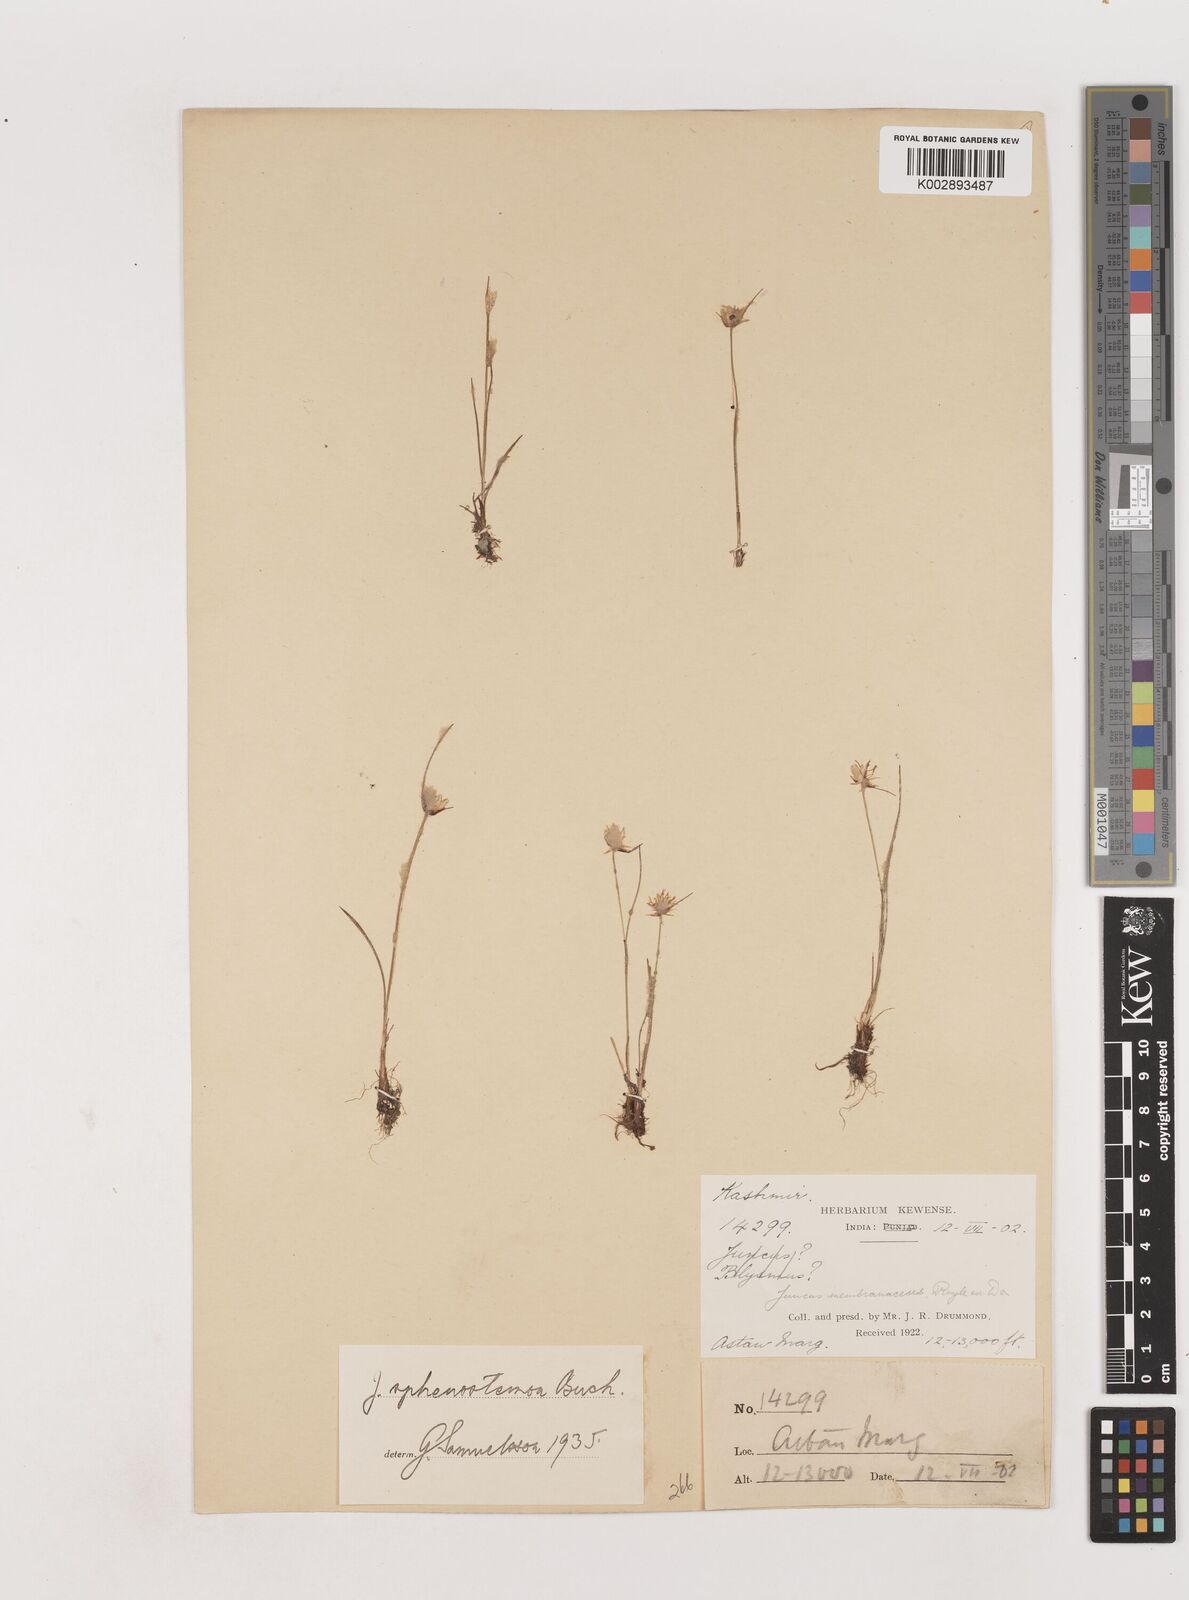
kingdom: Plantae
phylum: Tracheophyta
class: Liliopsida
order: Poales
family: Juncaceae
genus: Juncus
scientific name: Juncus benghalensis
